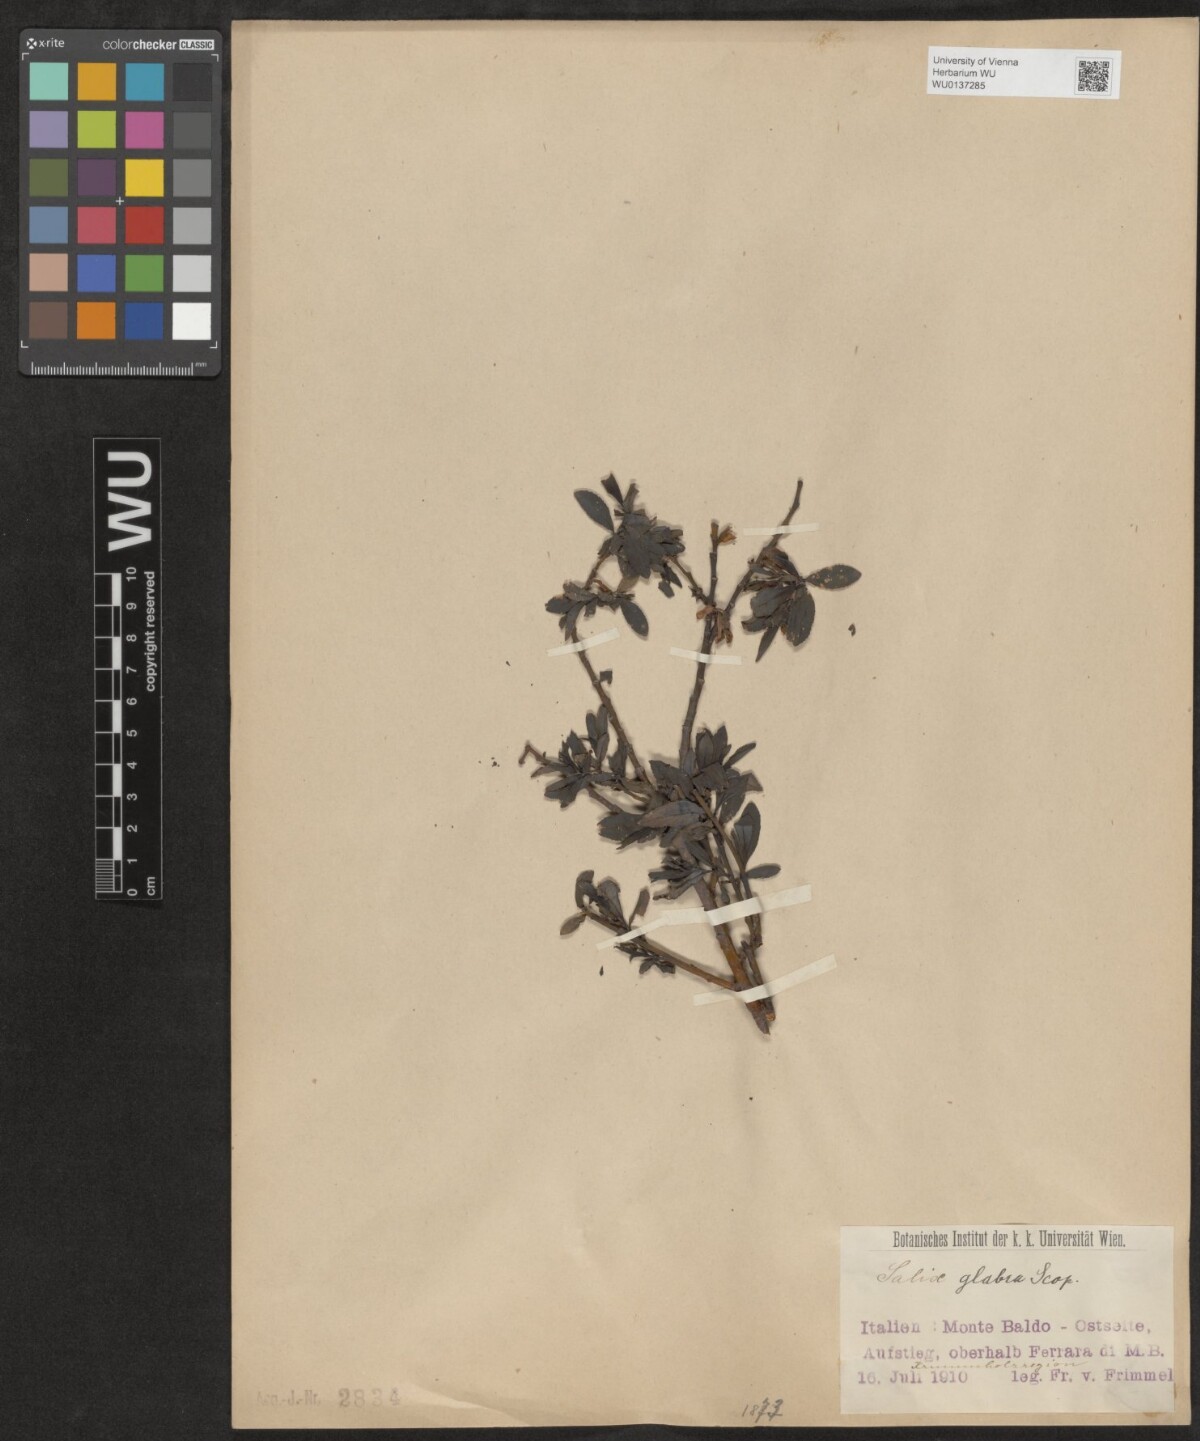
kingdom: Plantae
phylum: Tracheophyta
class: Magnoliopsida
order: Malpighiales
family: Salicaceae
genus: Salix
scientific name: Salix glabra
